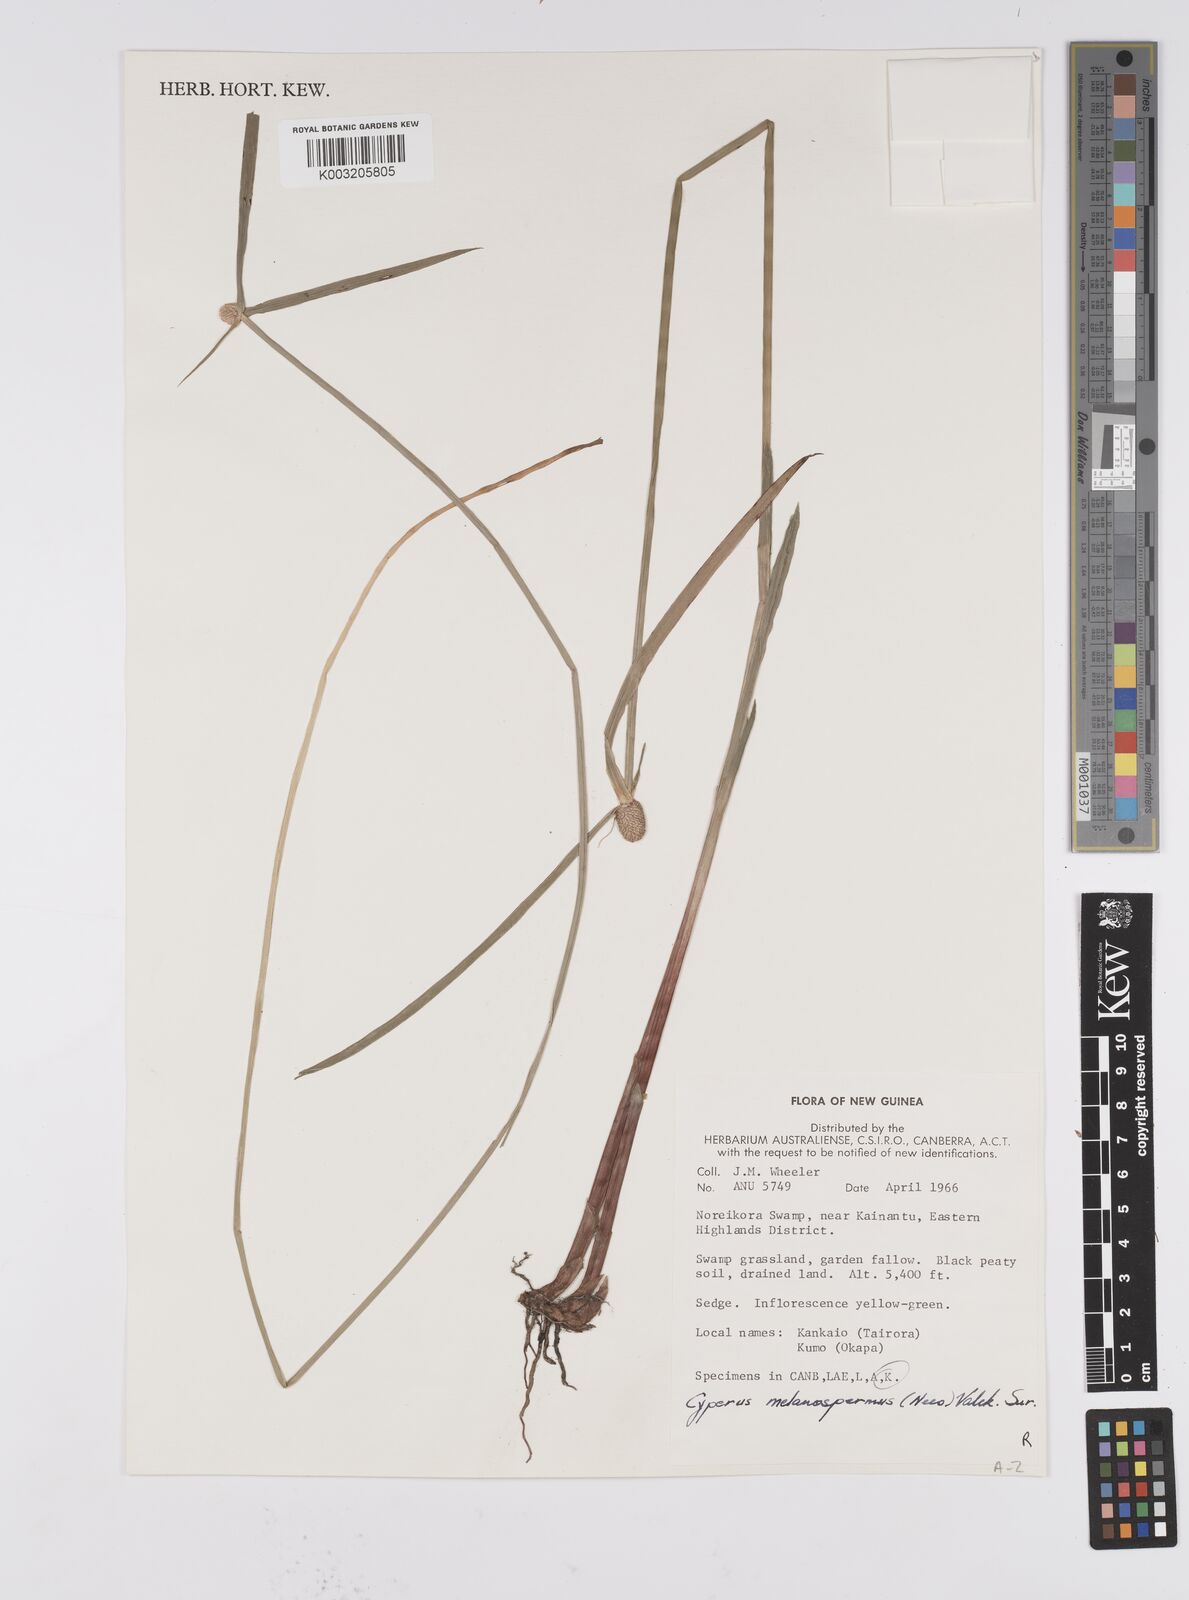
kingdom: Plantae
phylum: Tracheophyta
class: Liliopsida
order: Poales
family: Cyperaceae
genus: Cyperus
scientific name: Cyperus melanospermus
